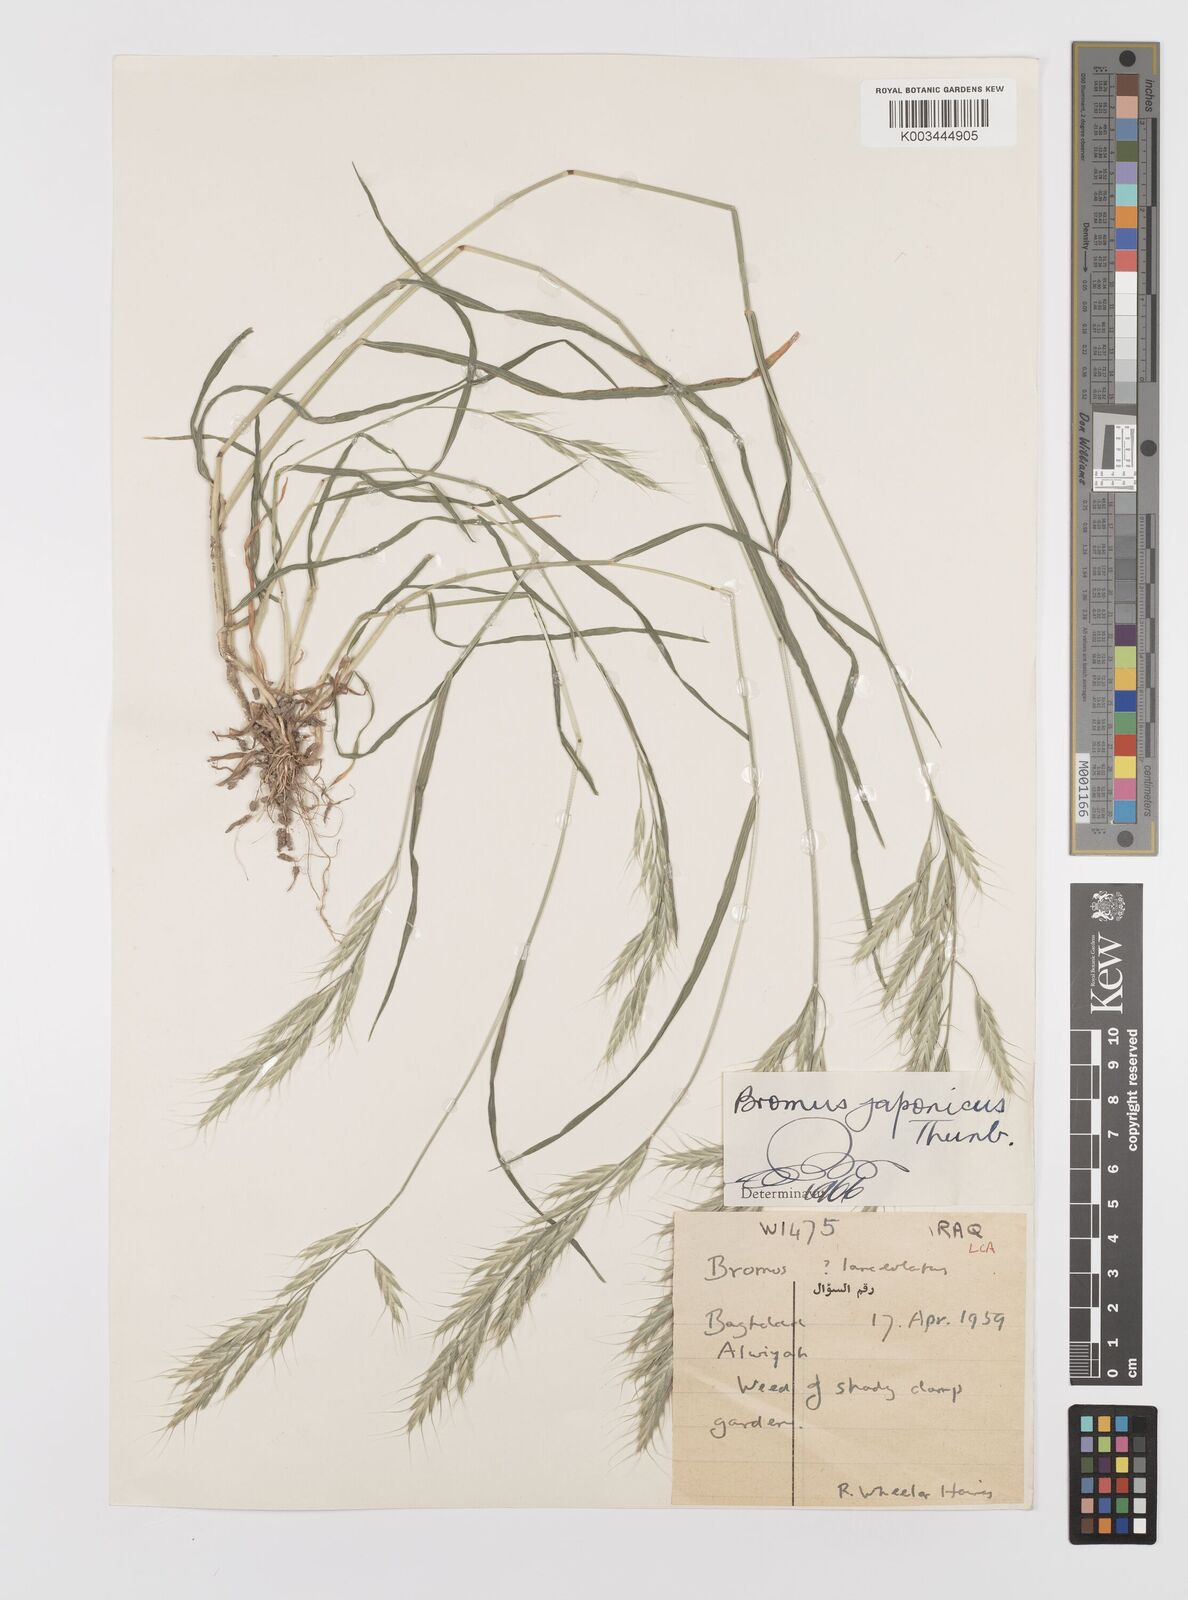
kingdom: Plantae
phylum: Tracheophyta
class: Liliopsida
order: Poales
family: Poaceae
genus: Bromus
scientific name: Bromus lanceolatus
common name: Mediterranean brome
